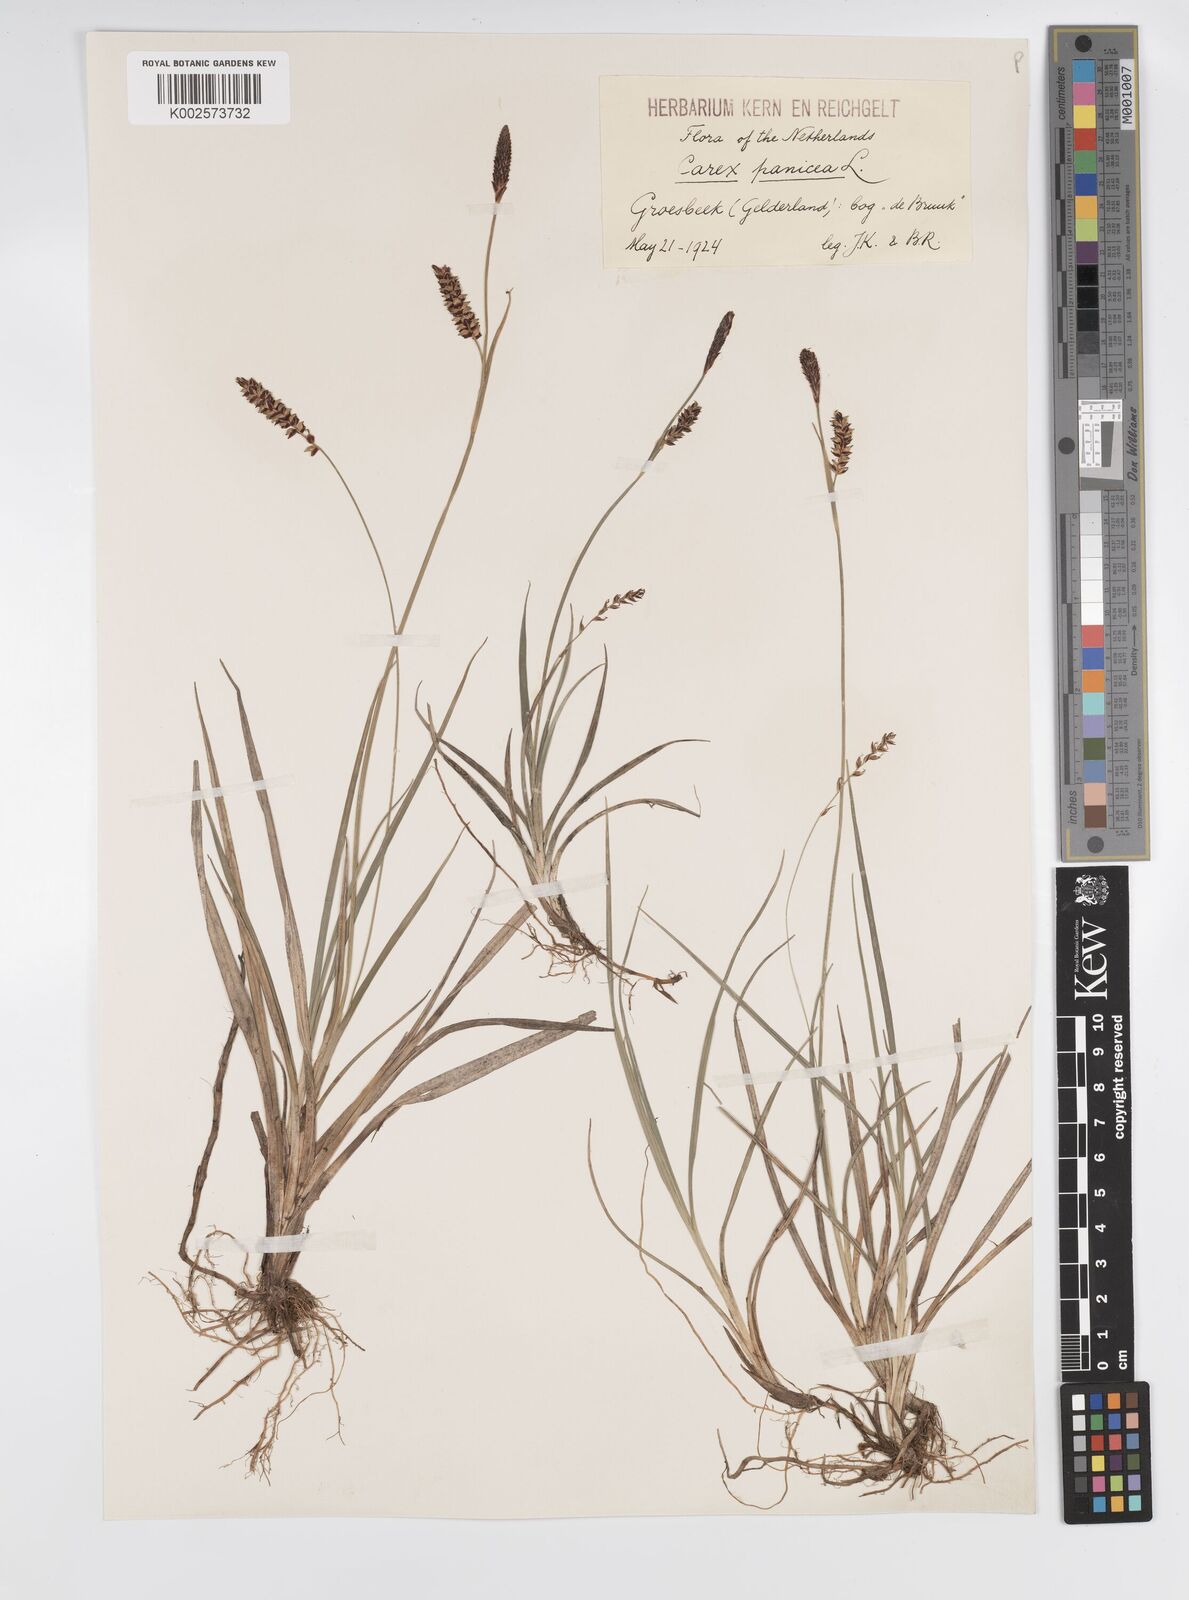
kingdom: Plantae
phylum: Tracheophyta
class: Liliopsida
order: Poales
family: Cyperaceae
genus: Carex
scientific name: Carex panicea
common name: Carnation sedge
